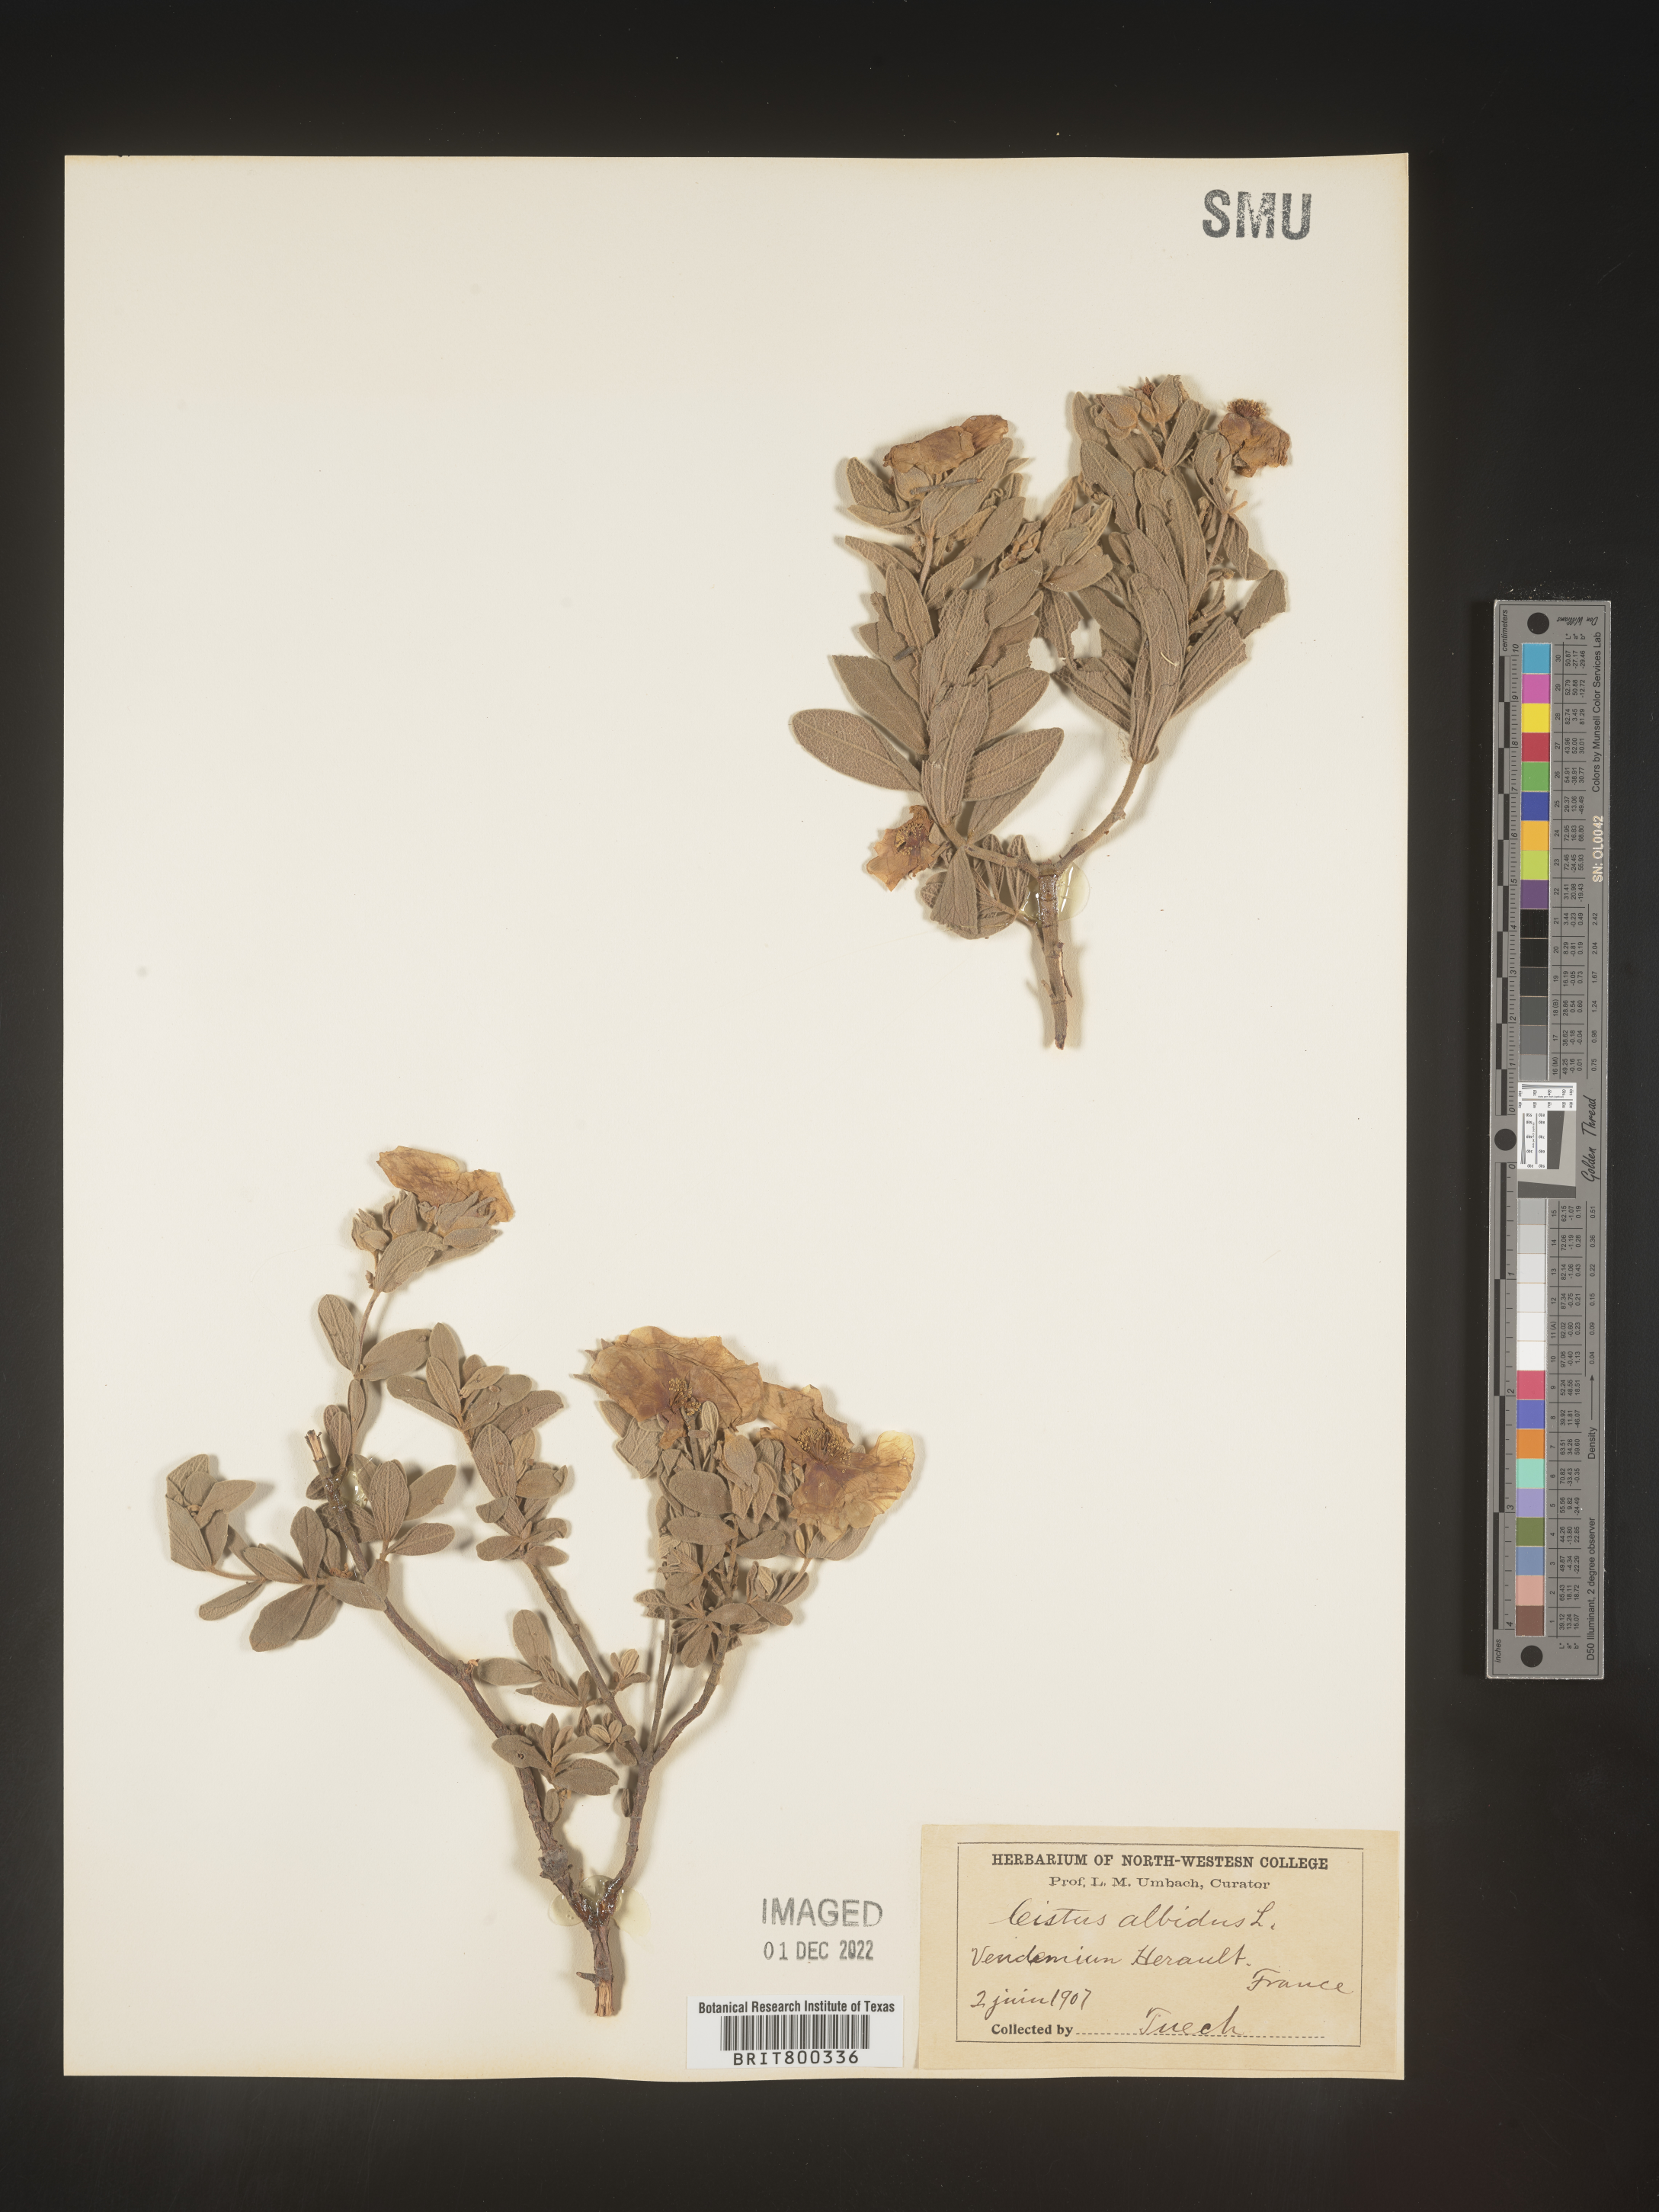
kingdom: Plantae
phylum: Tracheophyta
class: Magnoliopsida
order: Malvales
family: Cistaceae
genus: Cistus
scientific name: Cistus
